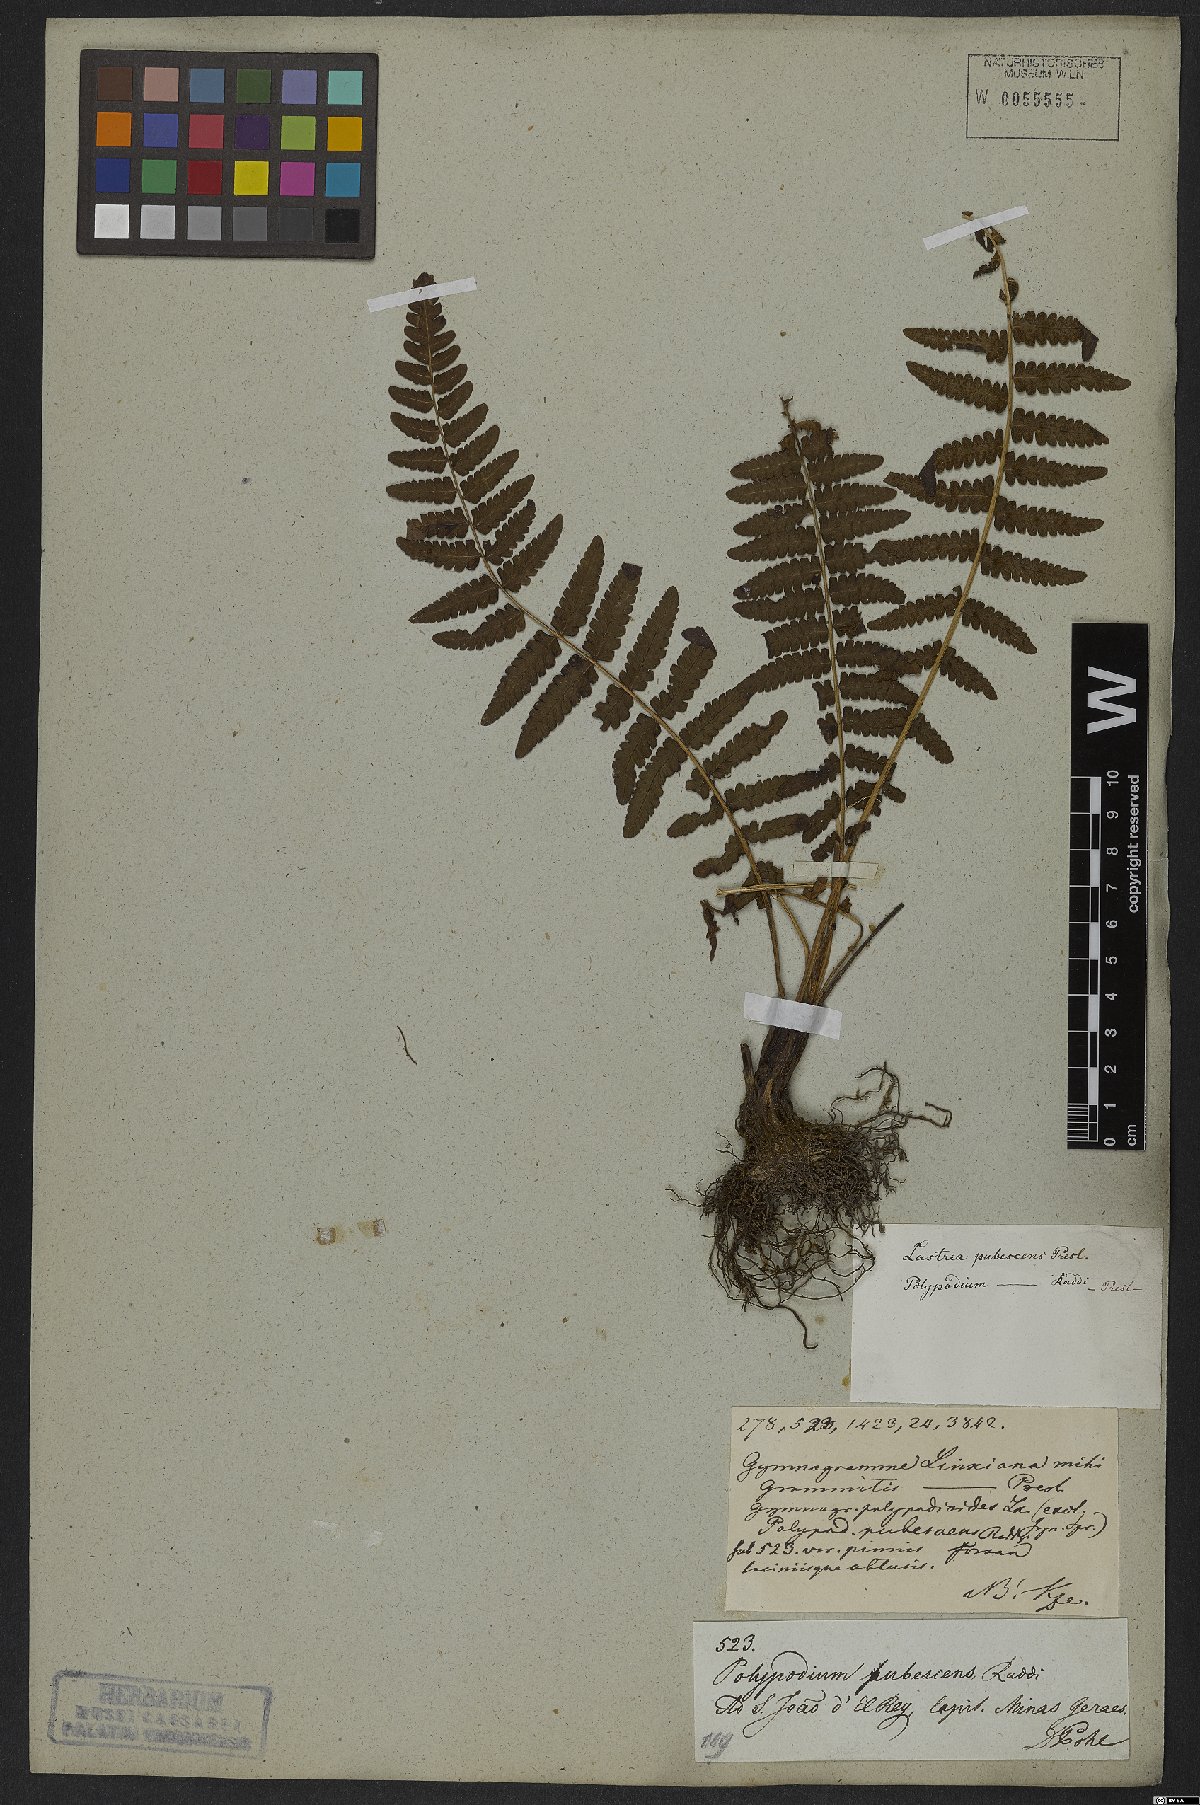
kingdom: Plantae
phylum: Tracheophyta
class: Polypodiopsida
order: Polypodiales
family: Thelypteridaceae
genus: Amauropelta
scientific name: Amauropelta oligocarpa
